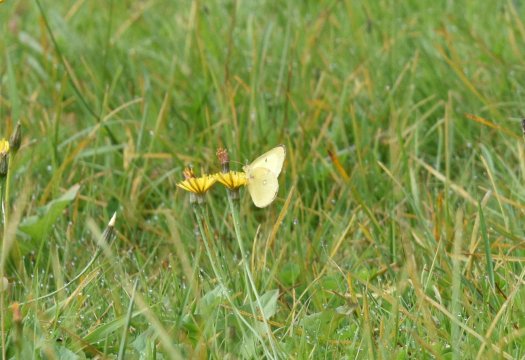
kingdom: Animalia
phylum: Arthropoda
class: Insecta
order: Lepidoptera
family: Pieridae
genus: Colias
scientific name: Colias philodice
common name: Clouded Sulphur
